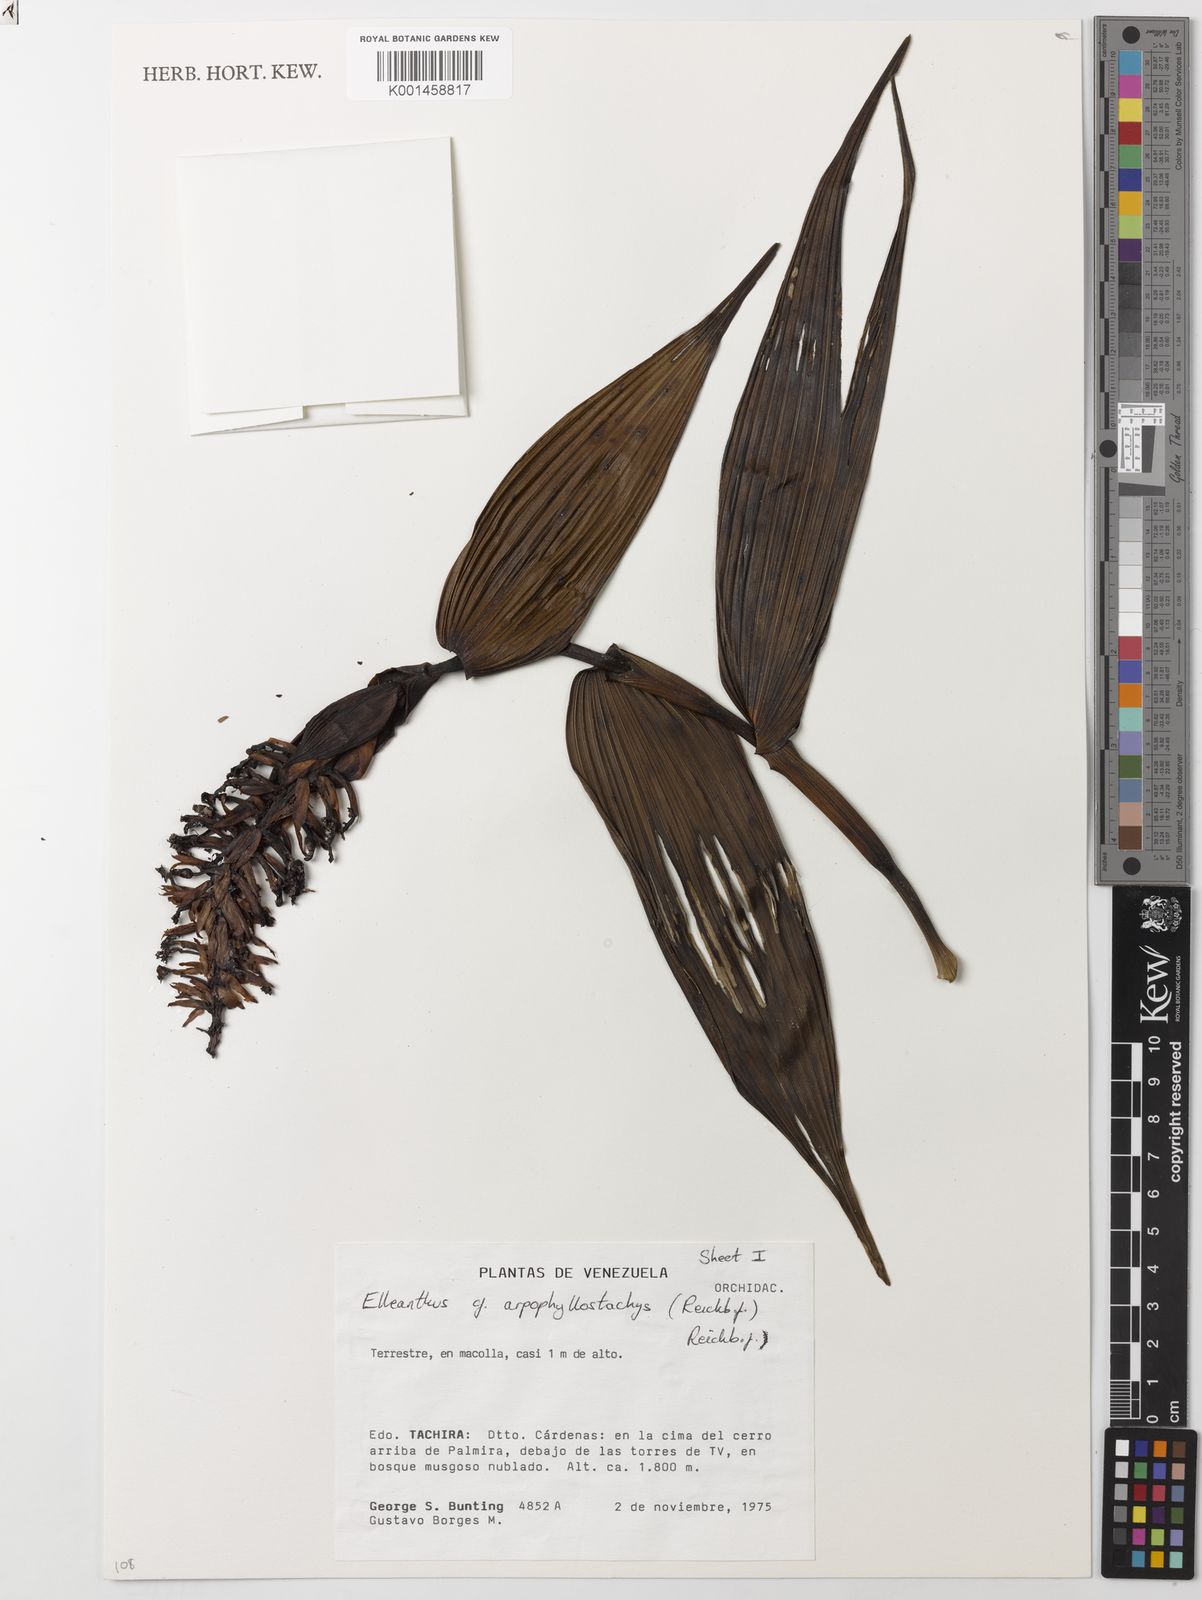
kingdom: Plantae
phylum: Tracheophyta
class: Liliopsida
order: Asparagales
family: Orchidaceae
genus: Elleanthus
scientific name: Elleanthus arpophyllostachys
